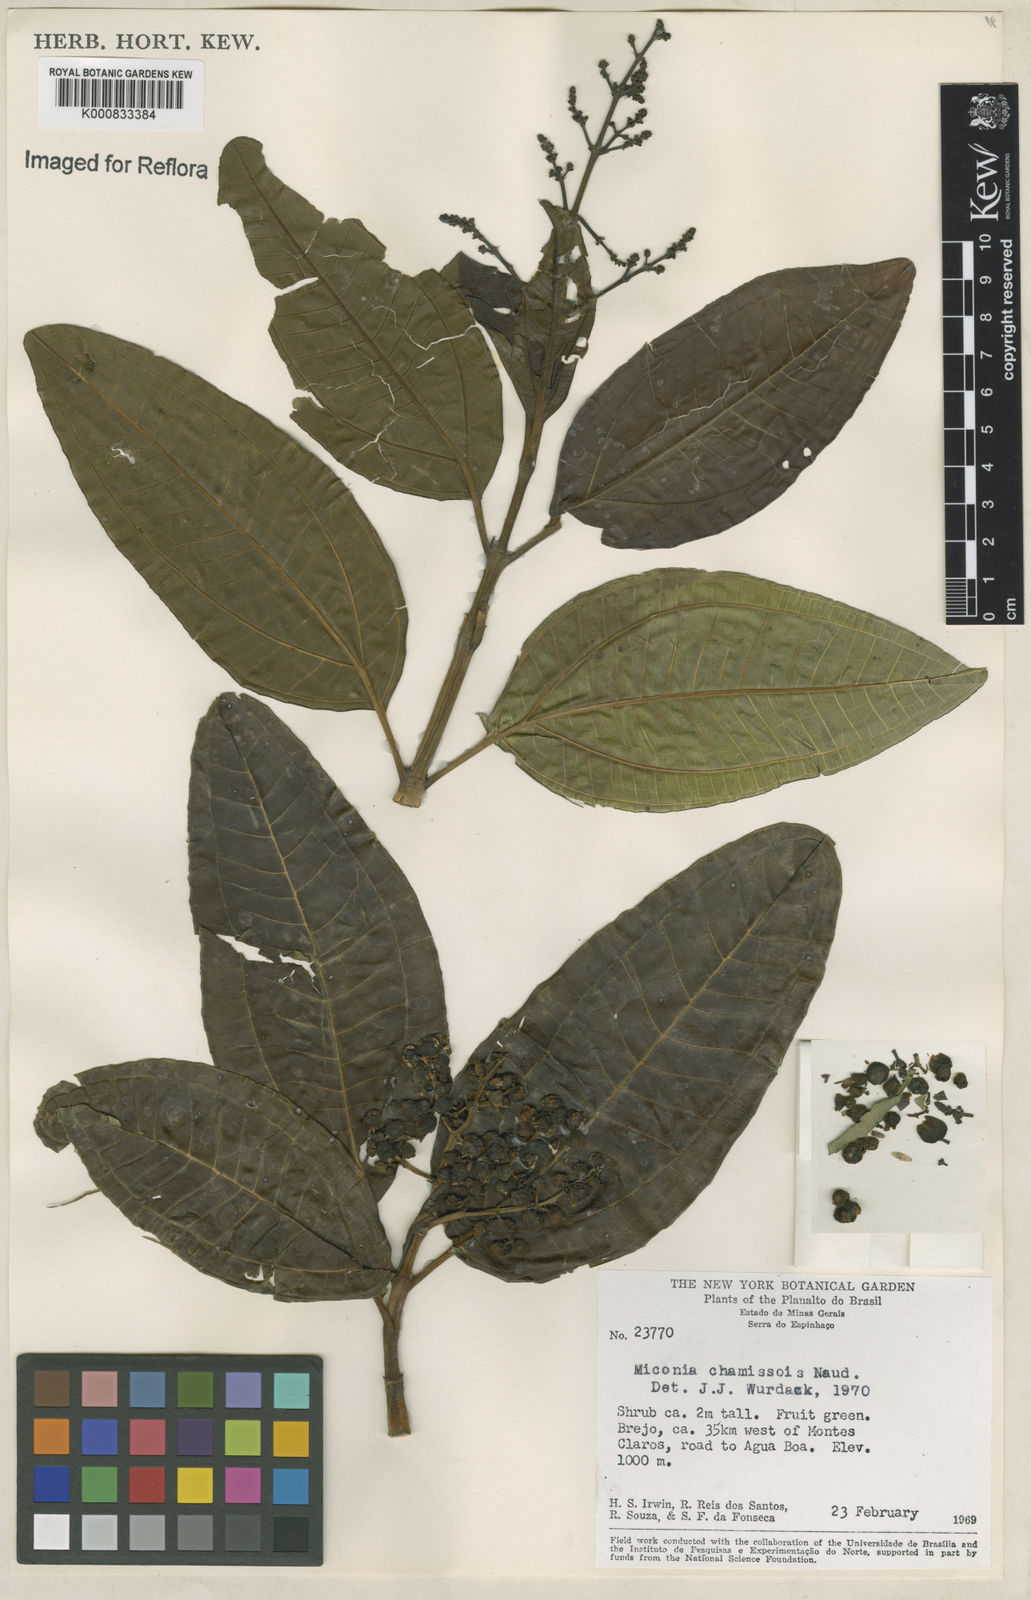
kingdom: Plantae
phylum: Tracheophyta
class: Magnoliopsida
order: Myrtales
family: Melastomataceae
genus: Miconia
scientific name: Miconia chamissois
